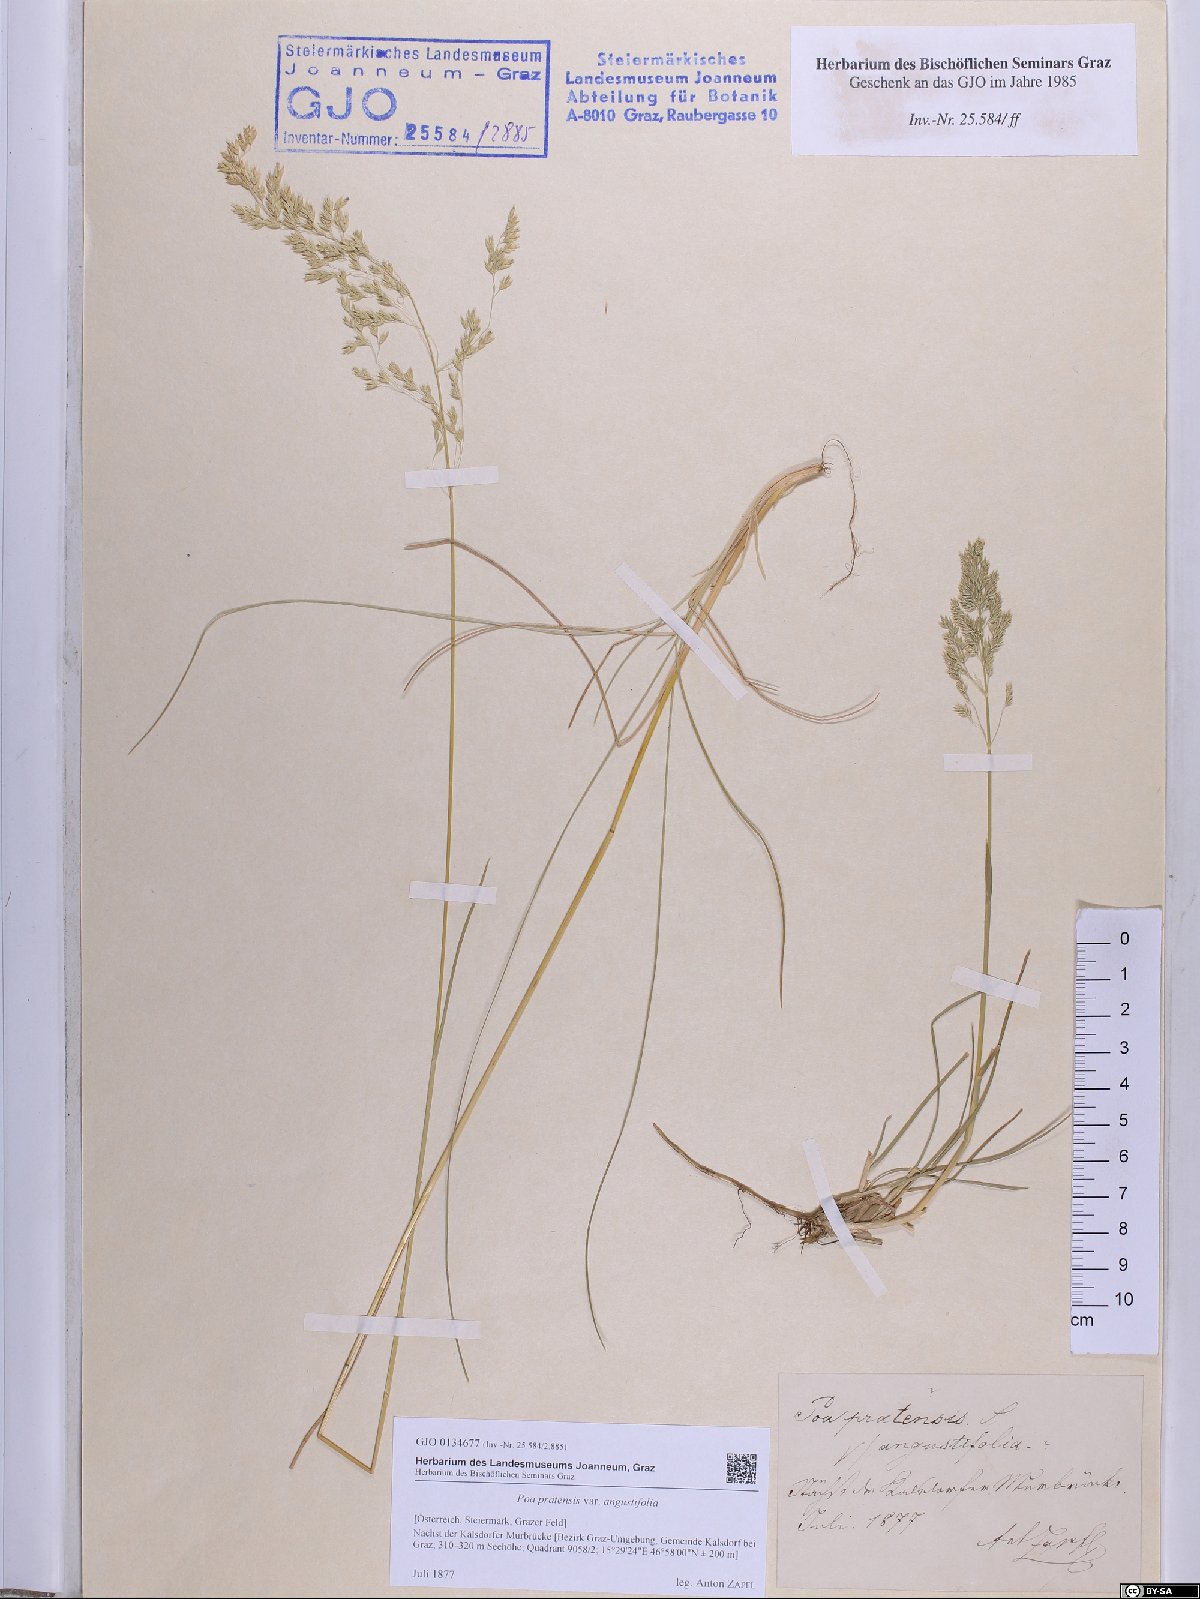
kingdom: Plantae
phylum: Tracheophyta
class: Liliopsida
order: Poales
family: Poaceae
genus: Poa
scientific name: Poa angustifolia
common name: Narrow-leaved meadow-grass
